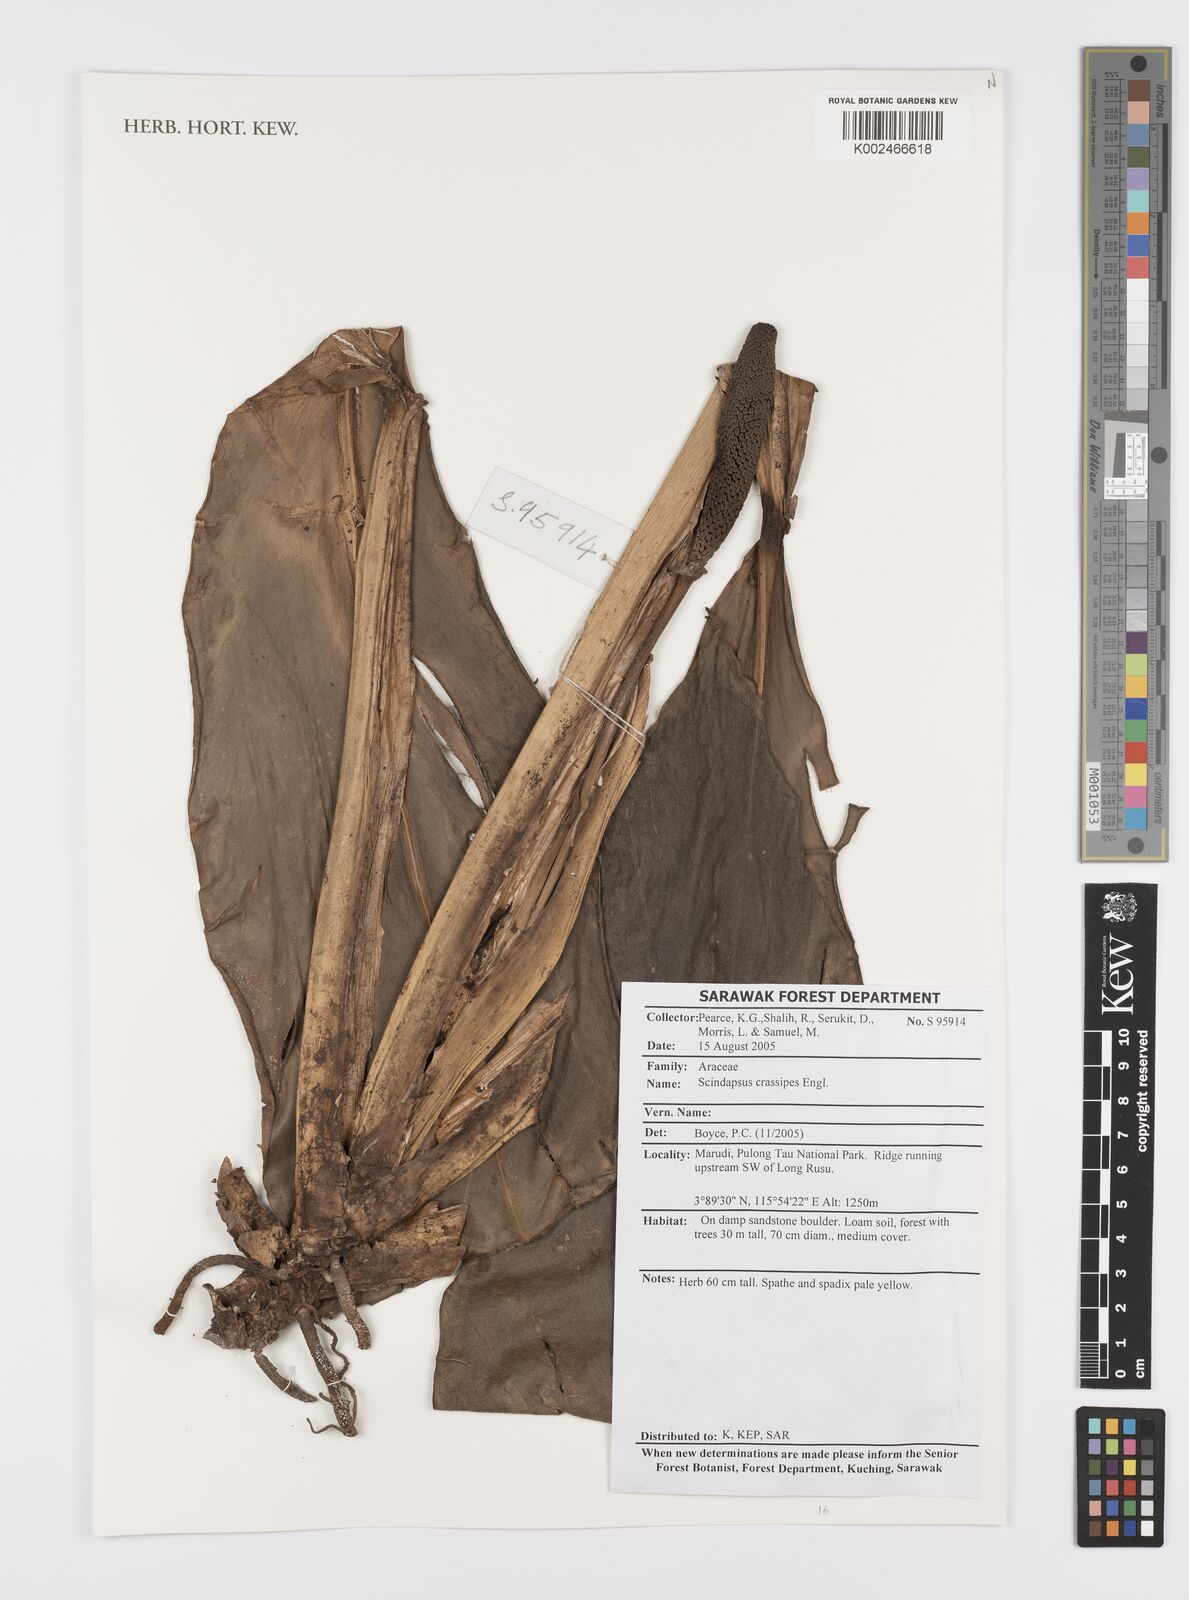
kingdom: Plantae
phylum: Tracheophyta
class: Liliopsida
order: Alismatales
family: Araceae
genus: Scindapsus
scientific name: Scindapsus crassipes
